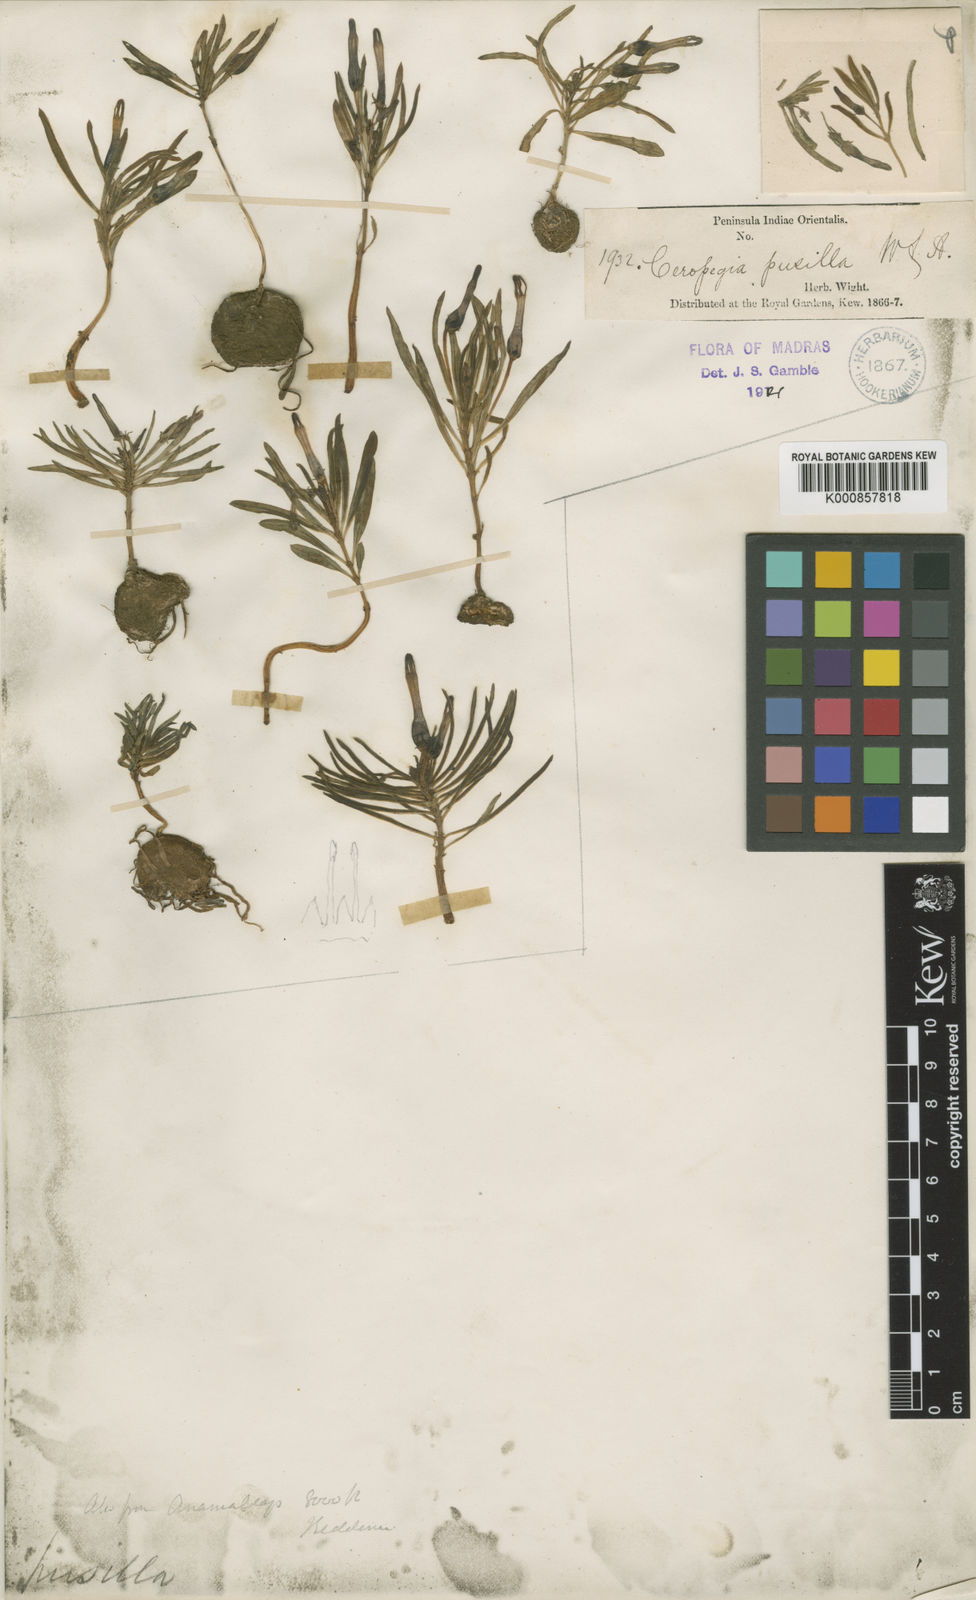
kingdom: Plantae
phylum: Tracheophyta
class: Magnoliopsida
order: Gentianales
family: Apocynaceae
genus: Ceropegia
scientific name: Ceropegia pusilla
